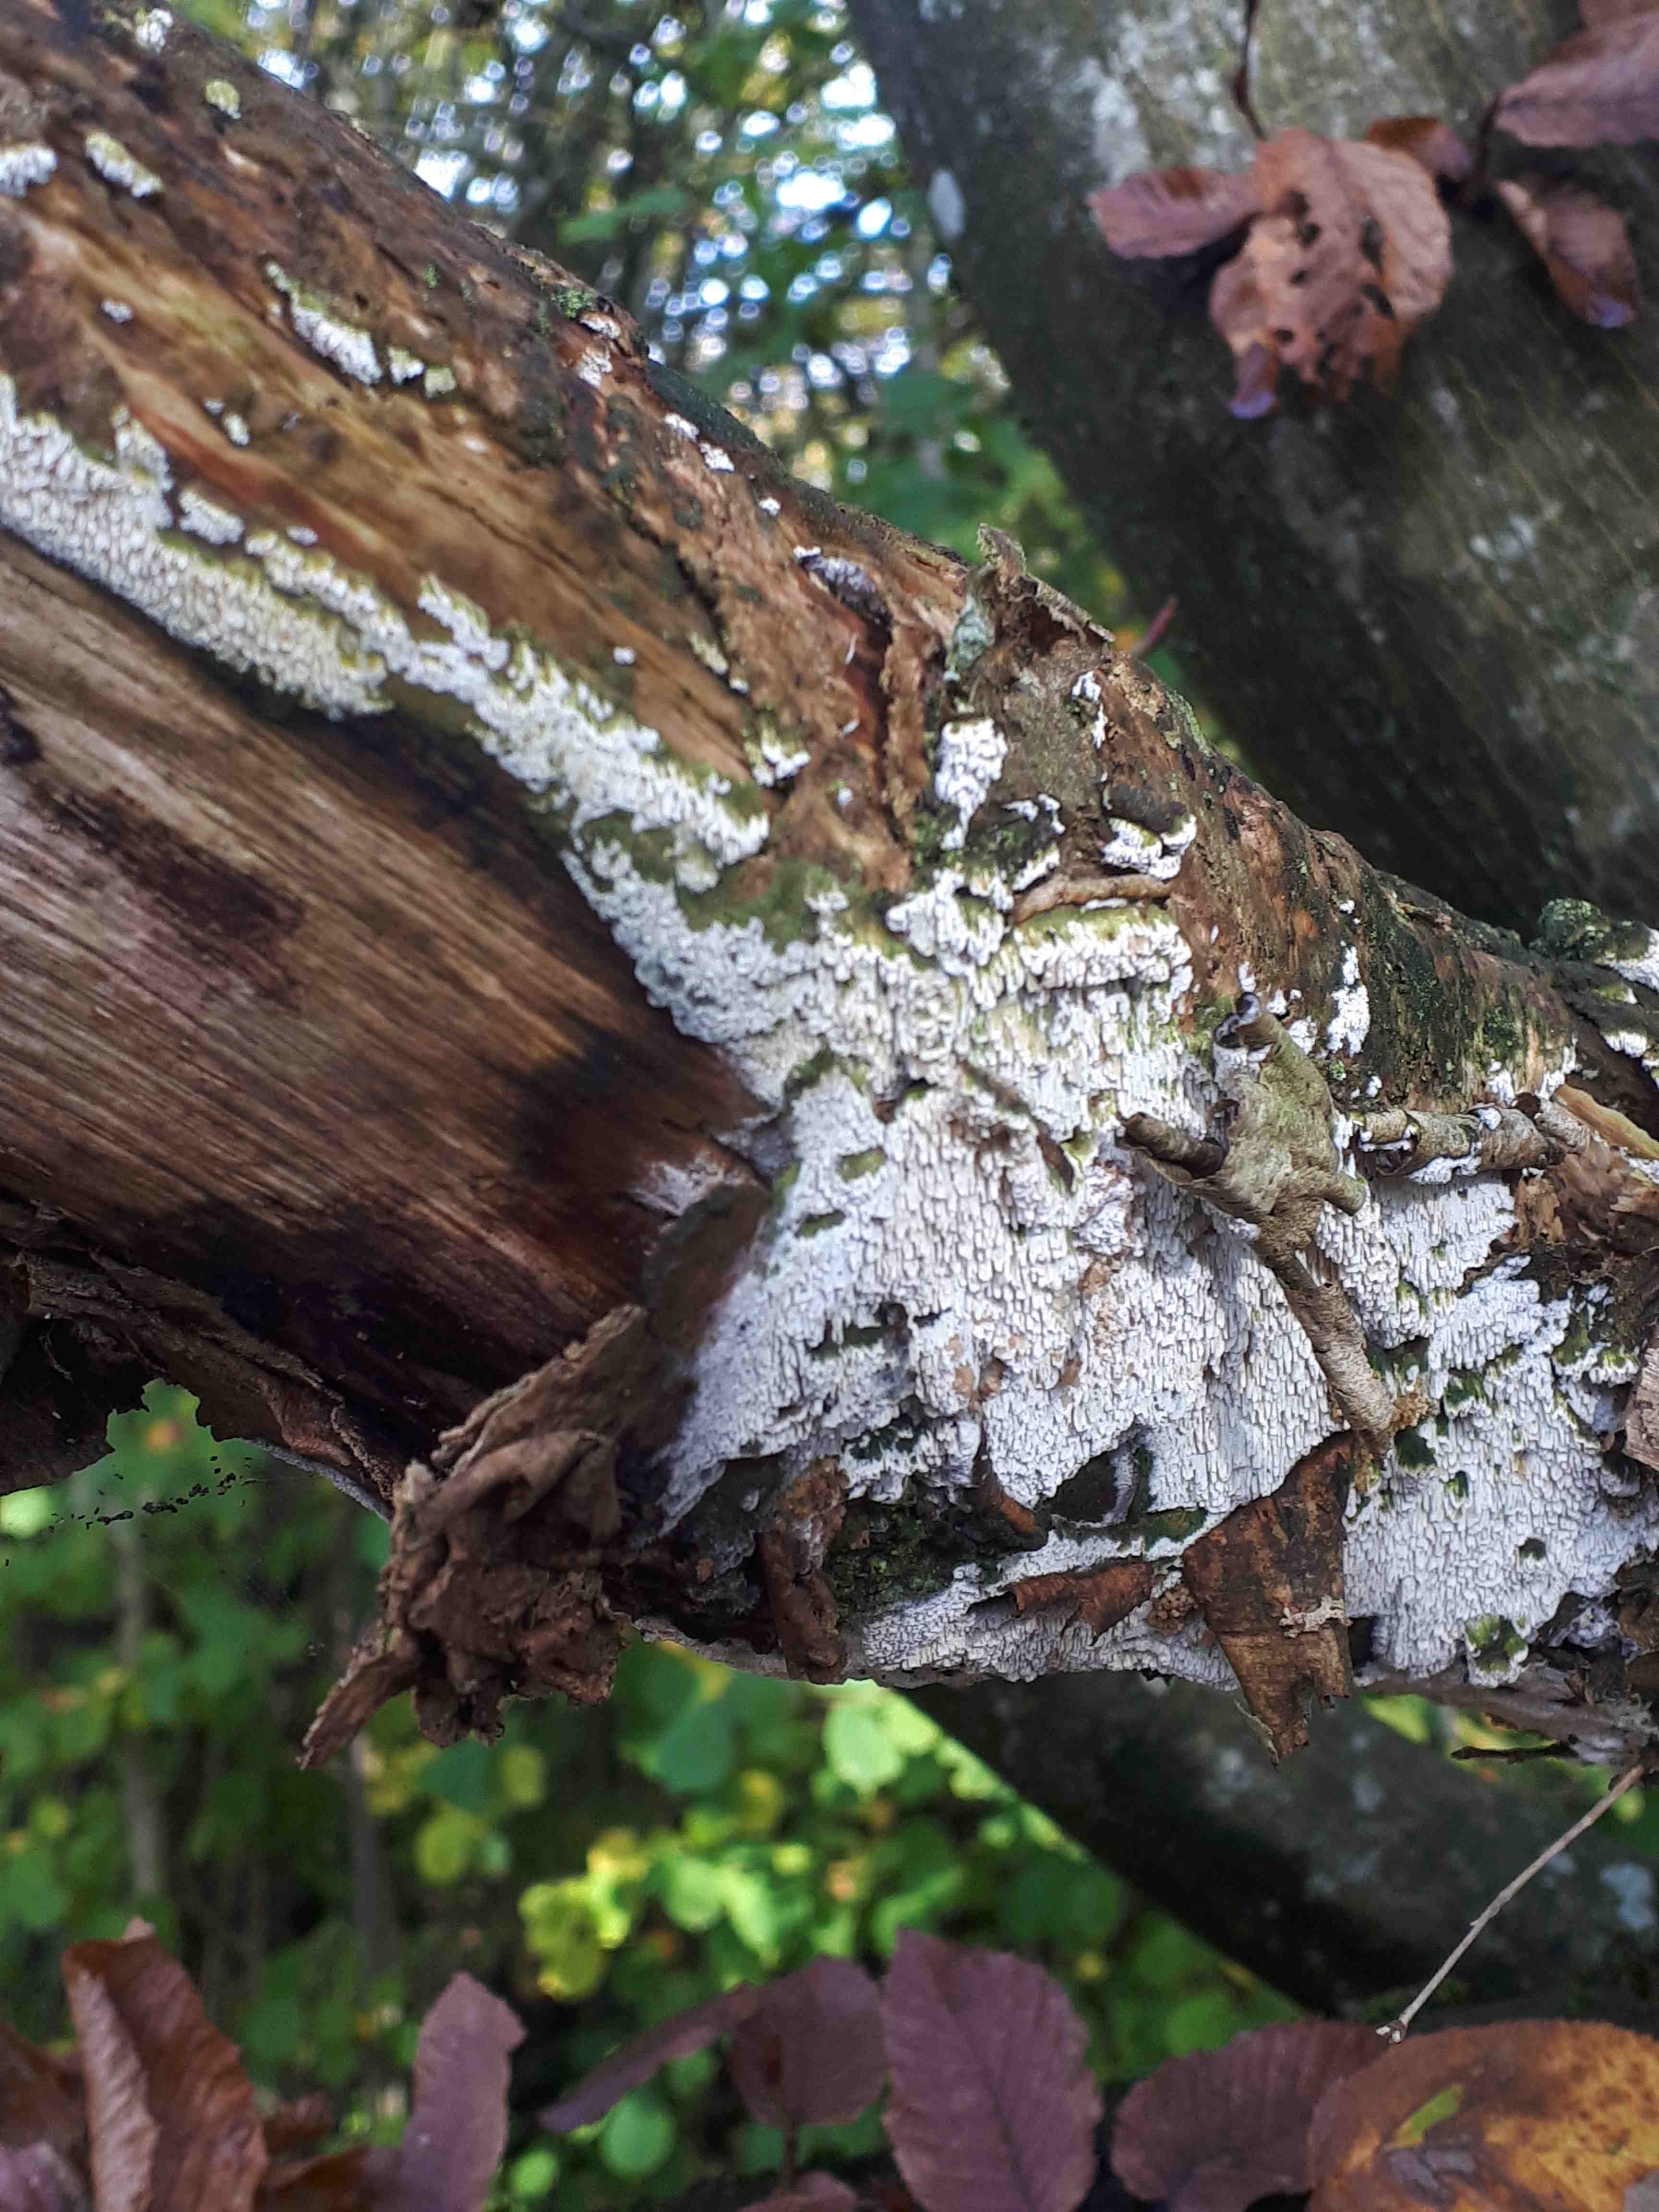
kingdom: Fungi
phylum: Basidiomycota
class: Agaricomycetes
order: Hymenochaetales
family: Schizoporaceae
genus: Schizopora
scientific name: Schizopora paradoxa
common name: hvid tandsvamp
